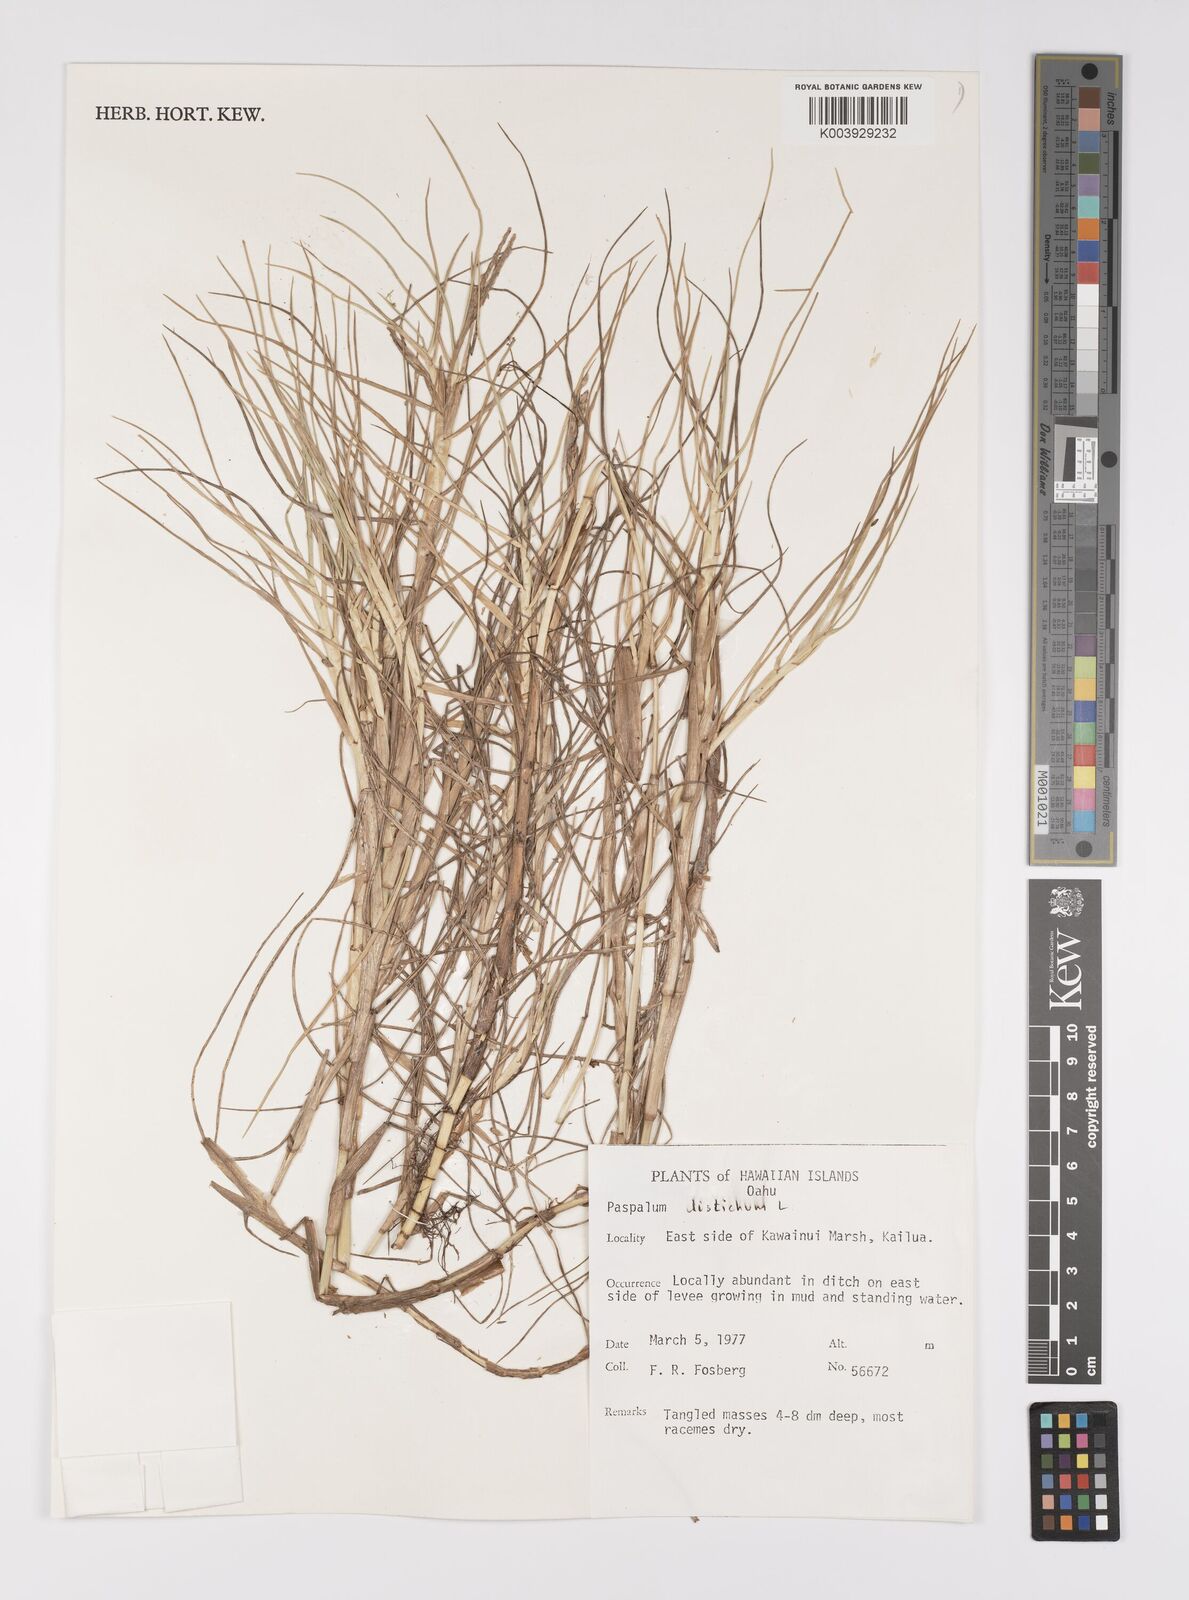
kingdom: Plantae
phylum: Tracheophyta
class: Liliopsida
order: Poales
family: Poaceae
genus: Paspalum
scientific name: Paspalum vaginatum
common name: Seashore paspalum
